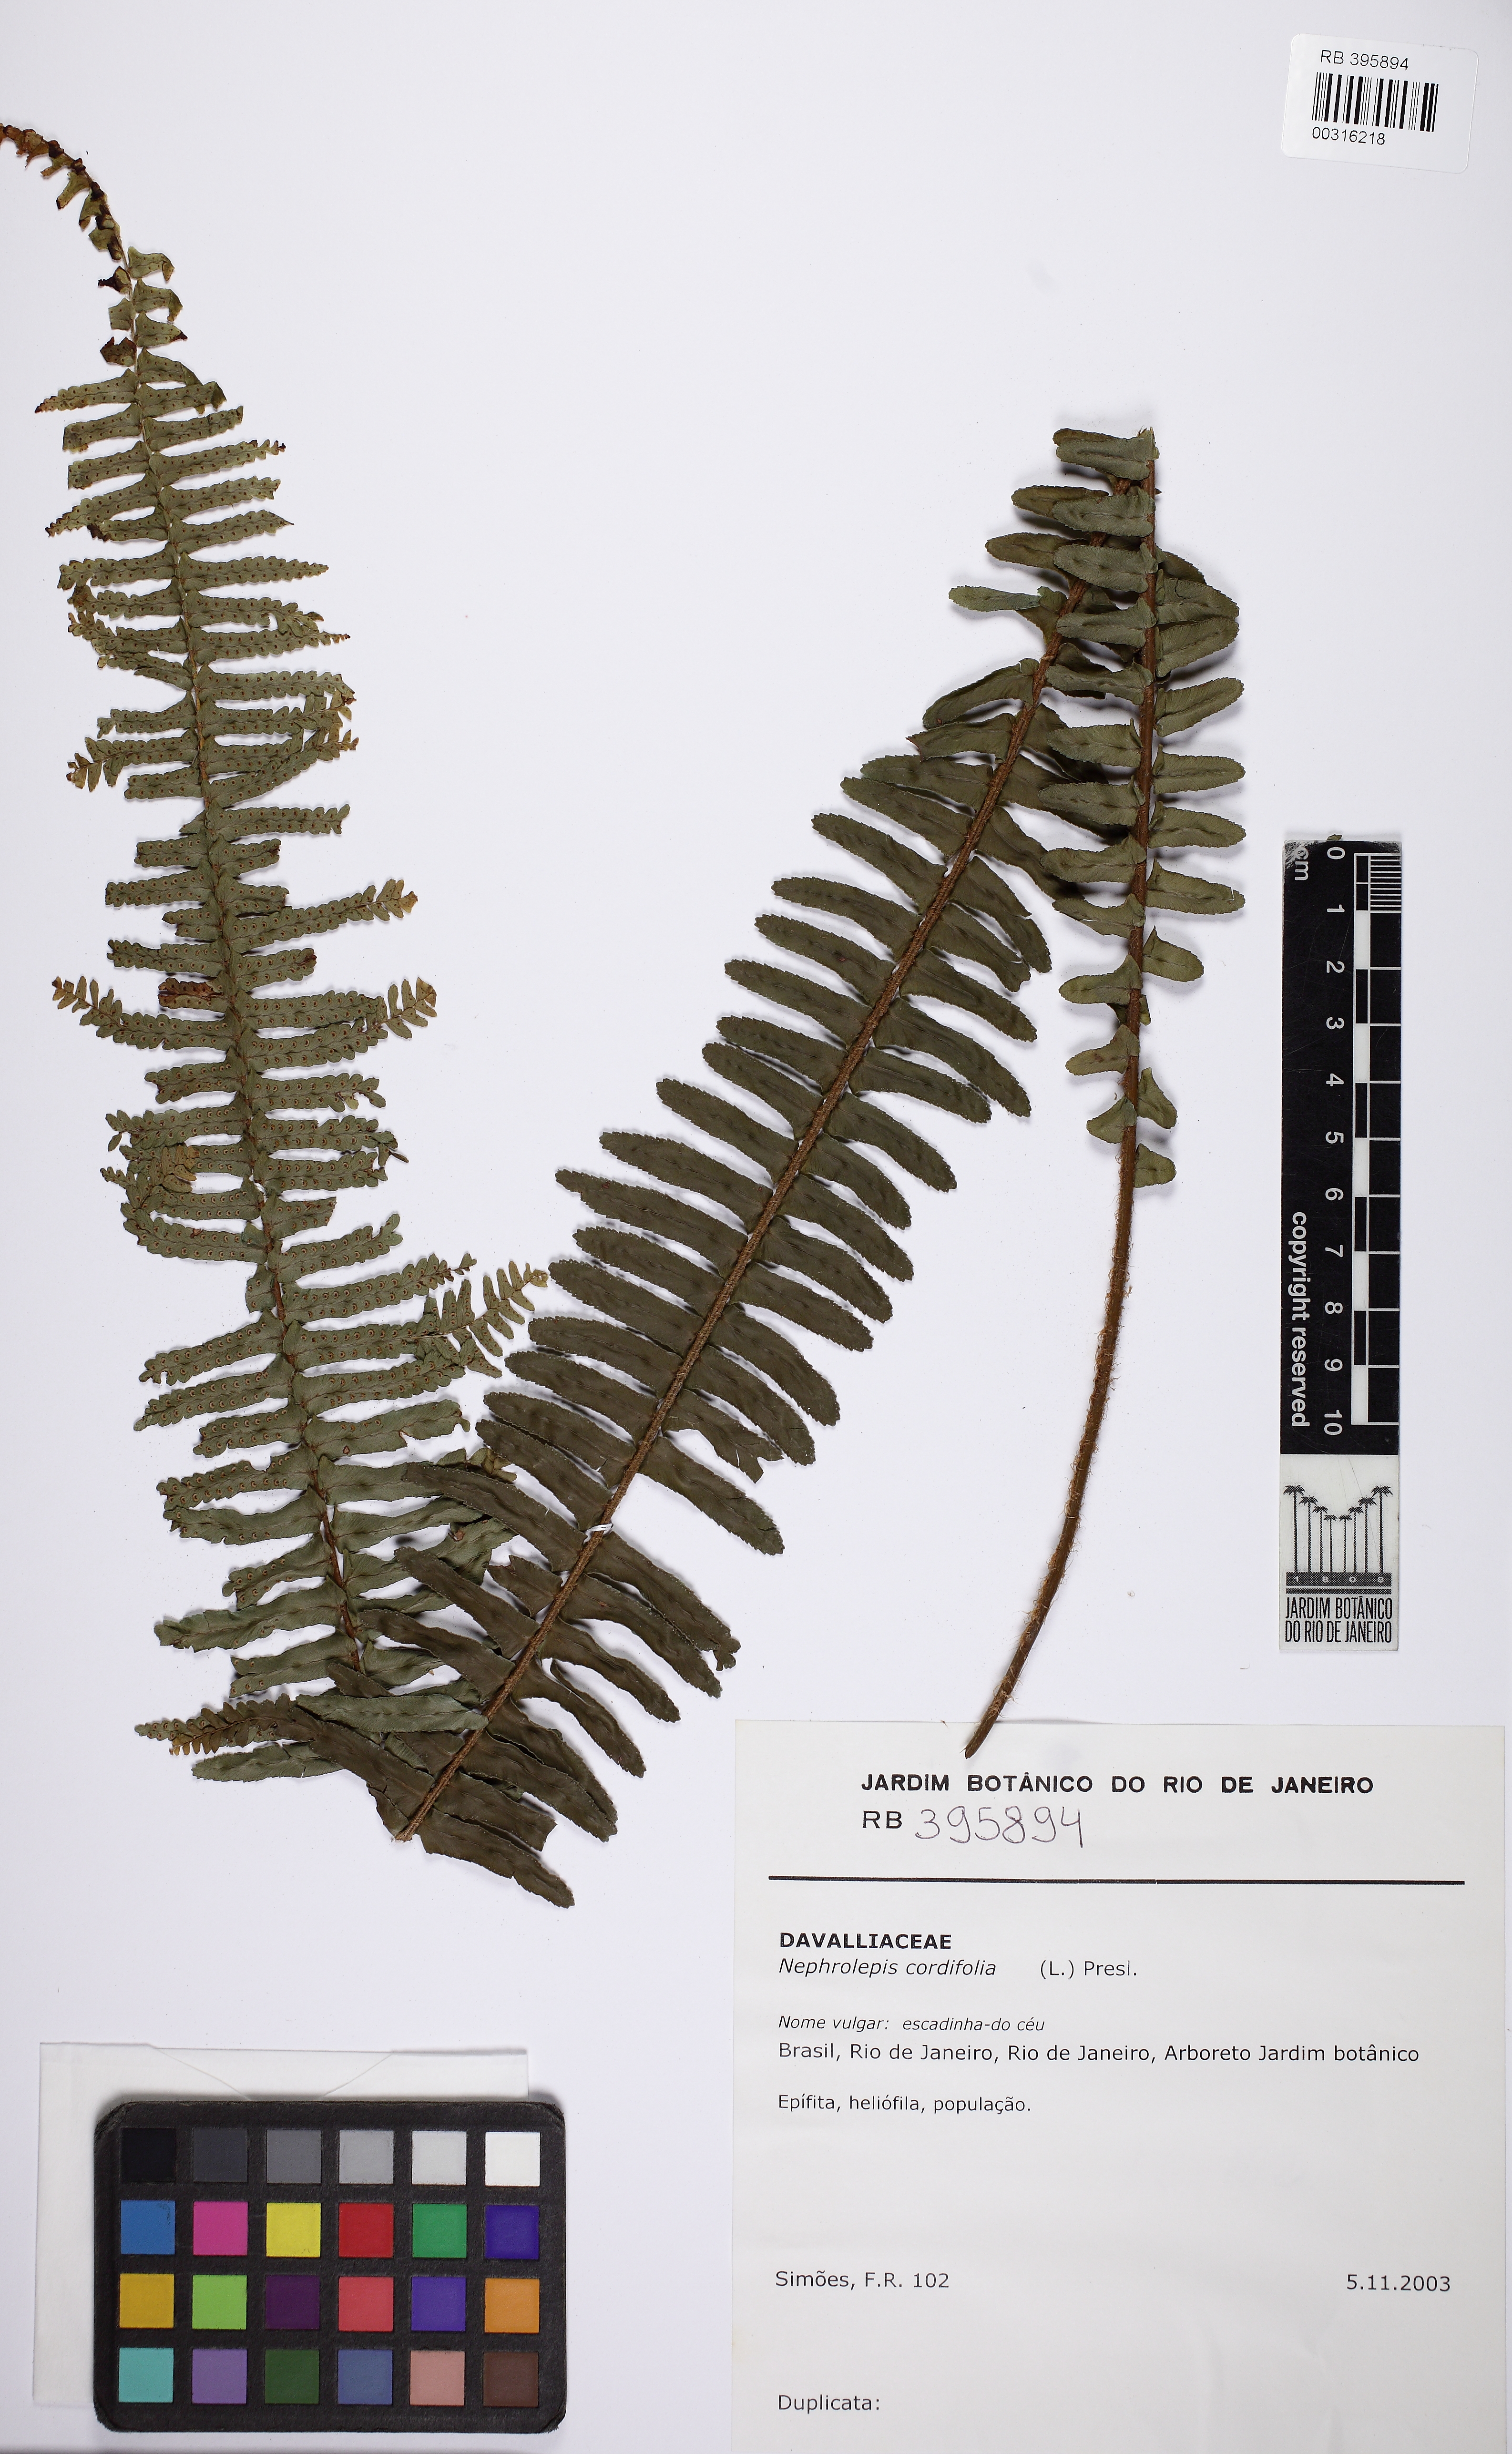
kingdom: Plantae
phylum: Tracheophyta
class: Polypodiopsida
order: Polypodiales
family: Nephrolepidaceae
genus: Nephrolepis
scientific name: Nephrolepis cordifolia
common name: Narrow swordfern
